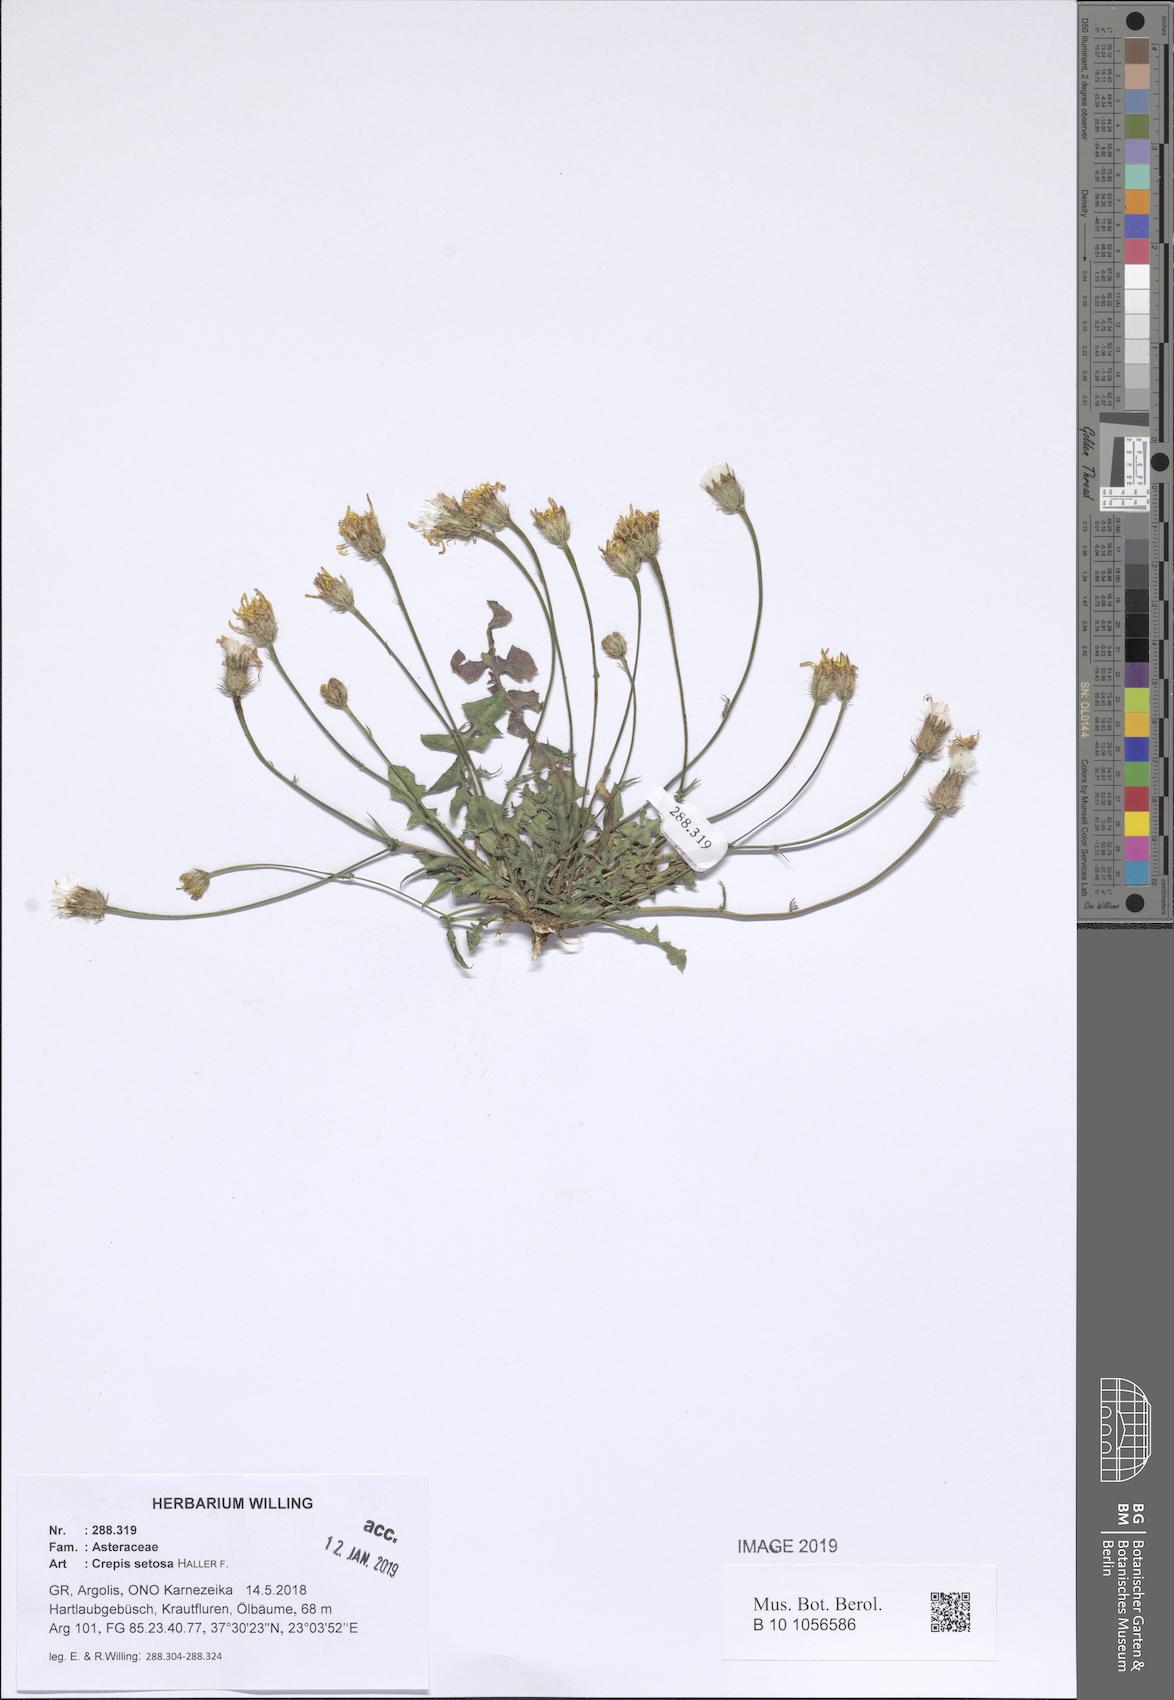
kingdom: Plantae
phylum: Tracheophyta
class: Magnoliopsida
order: Asterales
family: Asteraceae
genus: Crepis
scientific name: Crepis setosa
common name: Bristly hawk's-beard
